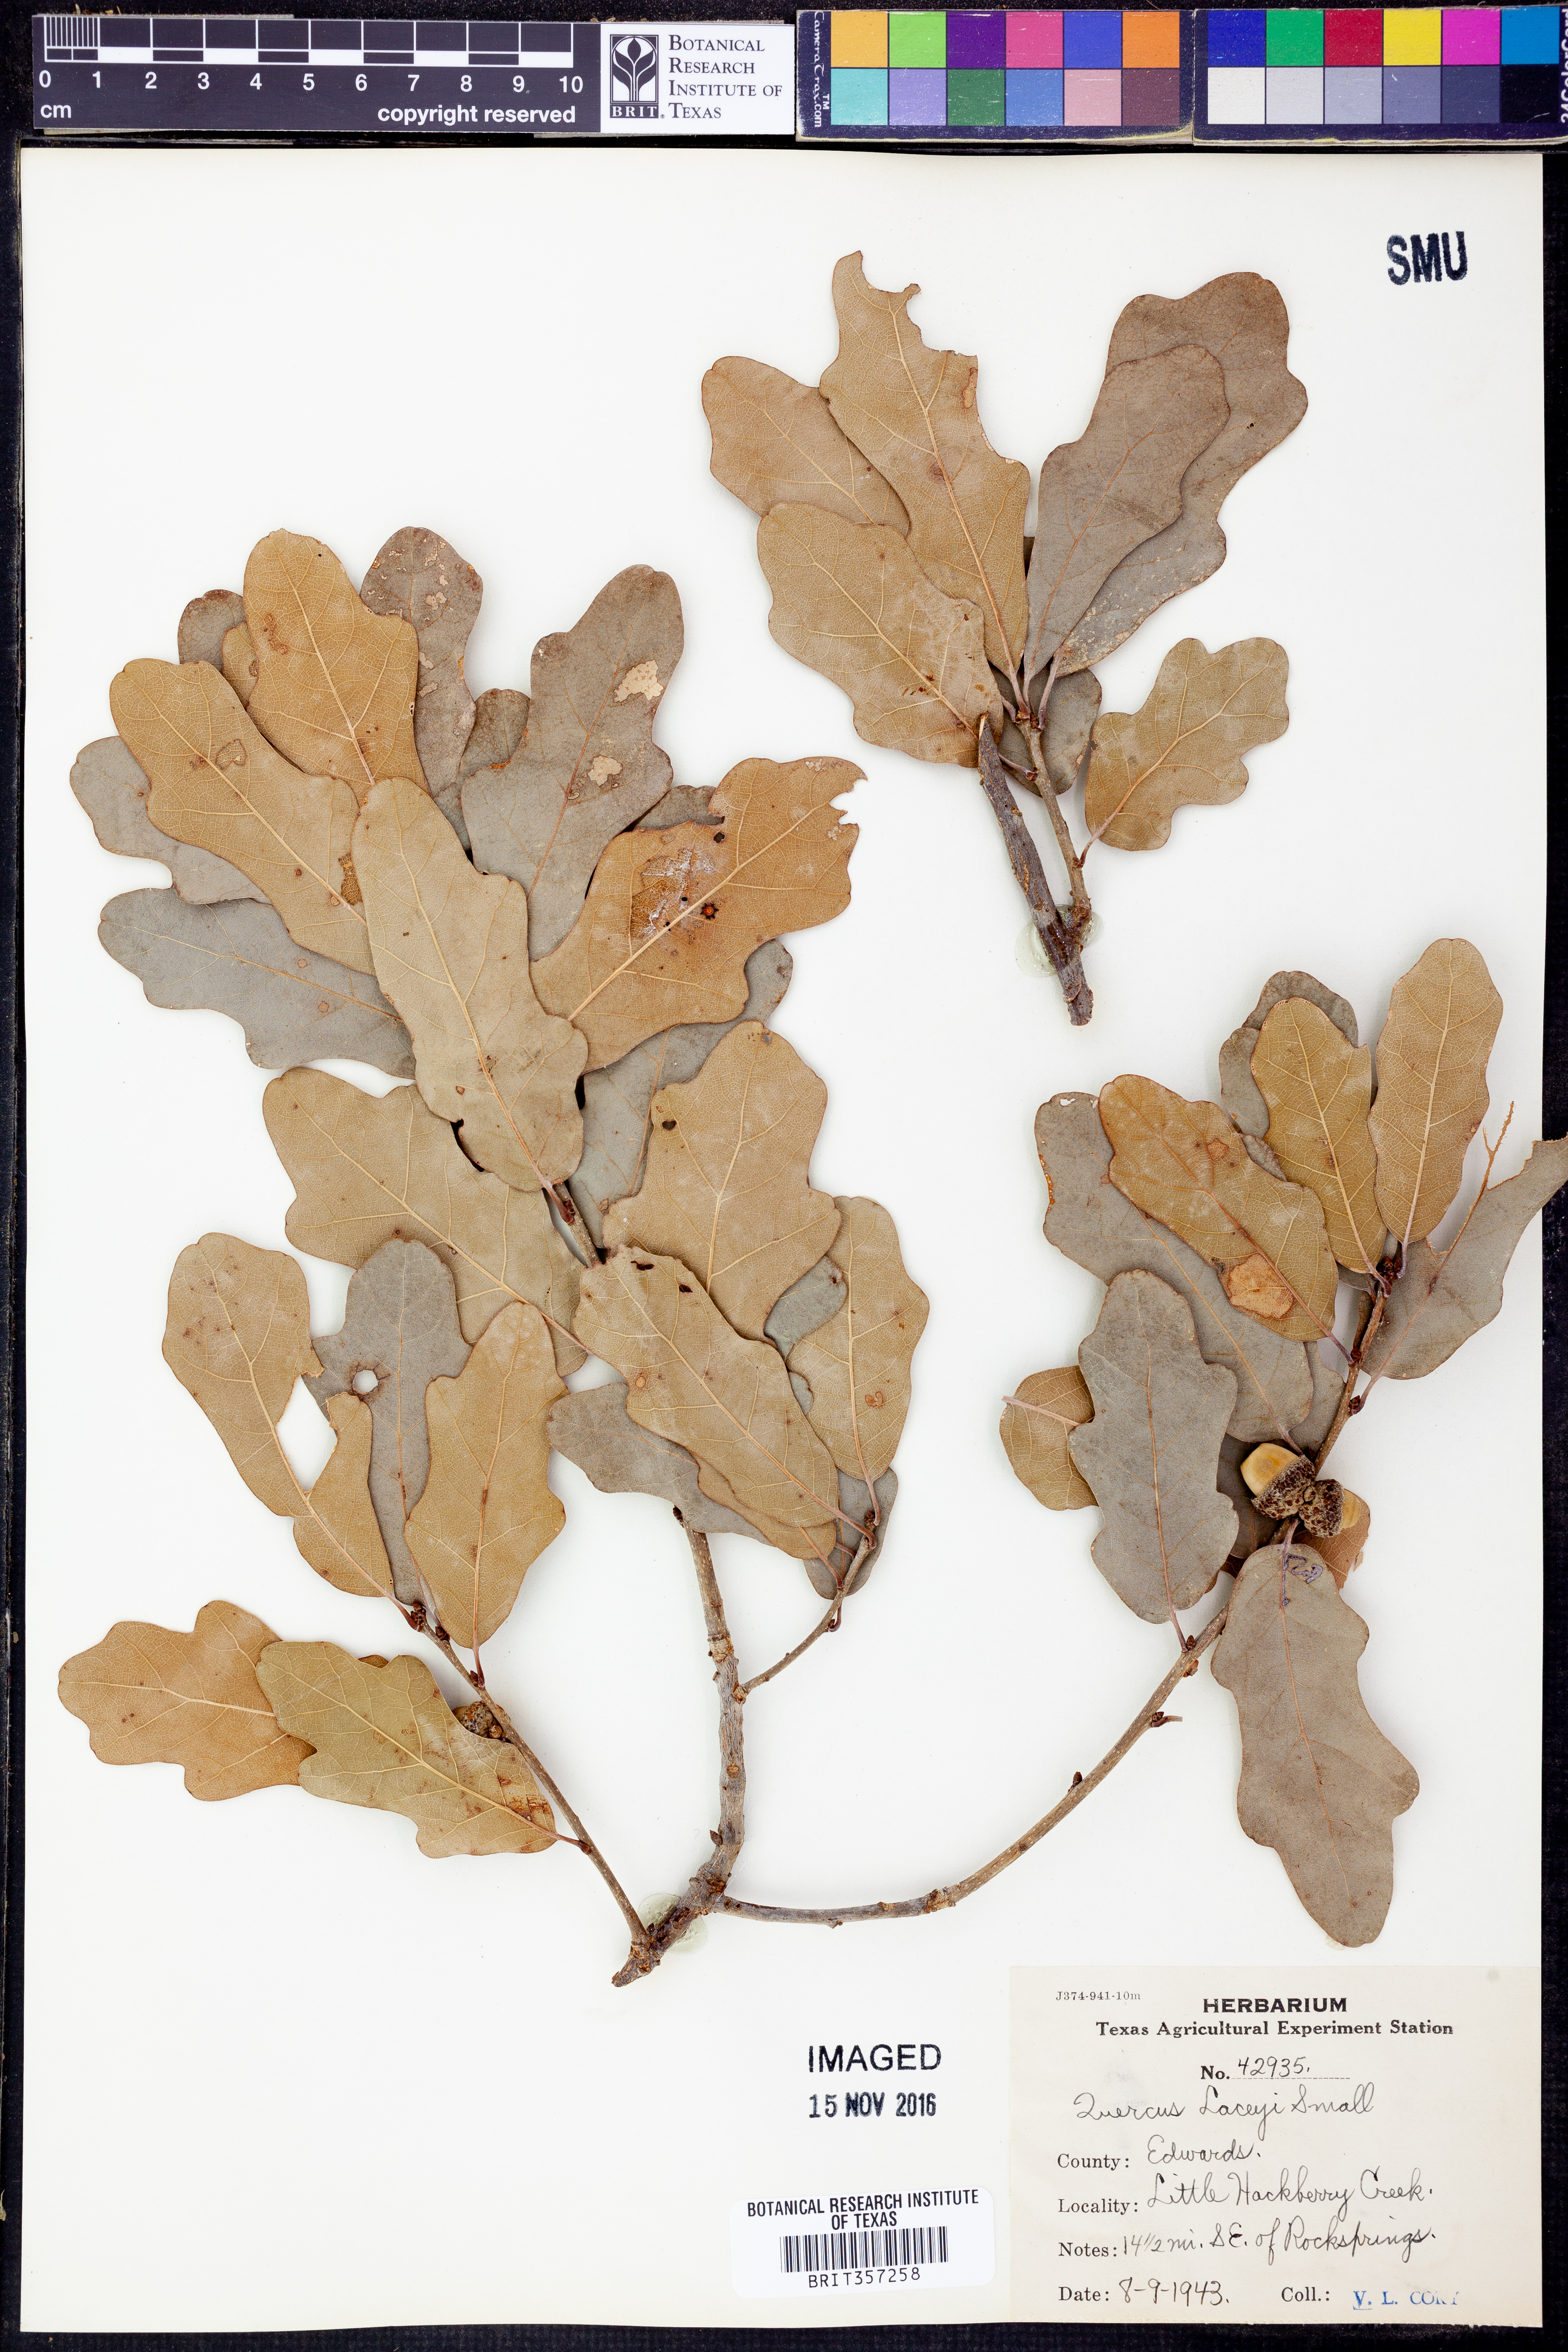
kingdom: Plantae
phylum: Tracheophyta
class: Magnoliopsida
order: Fagales
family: Fagaceae
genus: Quercus
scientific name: Quercus laceyi
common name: Lacey oak
